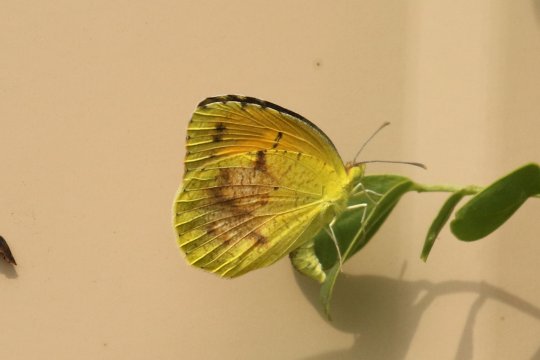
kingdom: Animalia
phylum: Arthropoda
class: Insecta
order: Lepidoptera
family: Pieridae
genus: Abaeis
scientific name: Abaeis nicippe
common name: Sleepy Orange
